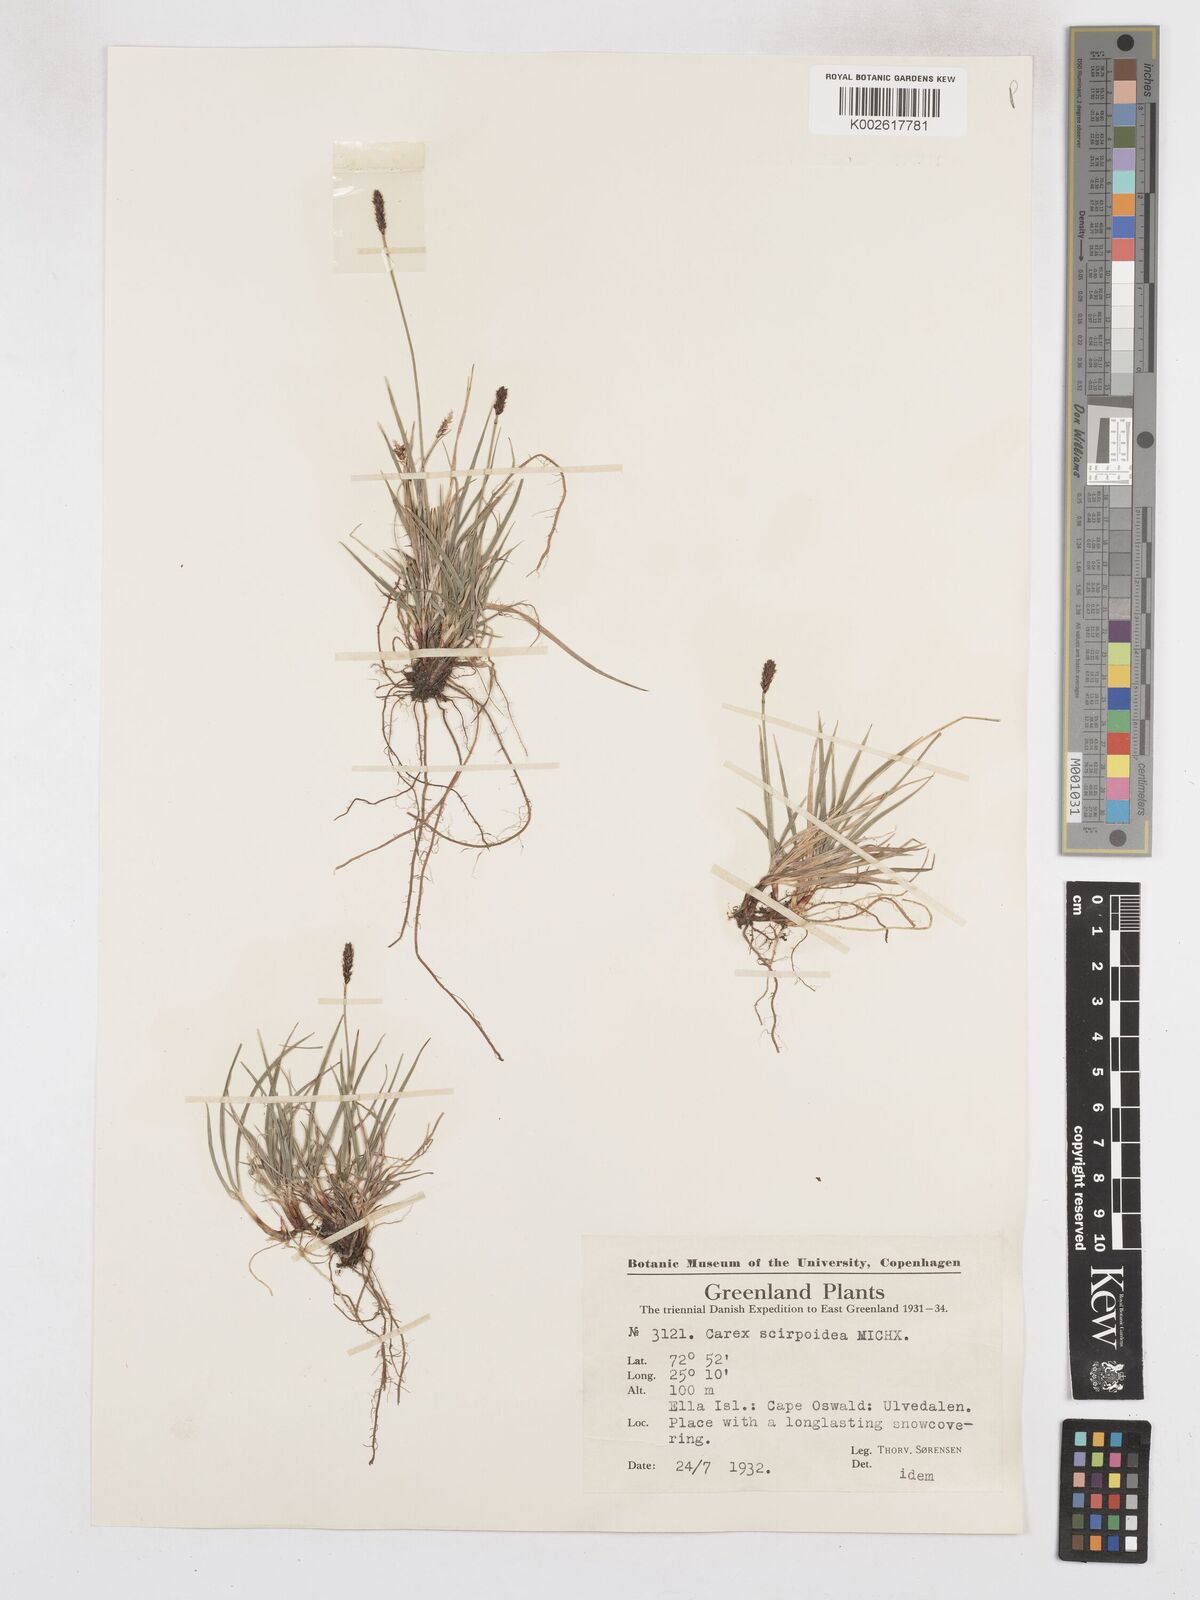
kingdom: Plantae
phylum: Tracheophyta
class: Liliopsida
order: Poales
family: Cyperaceae
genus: Carex
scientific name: Carex scirpoidea
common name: Canada single-spike sedge
